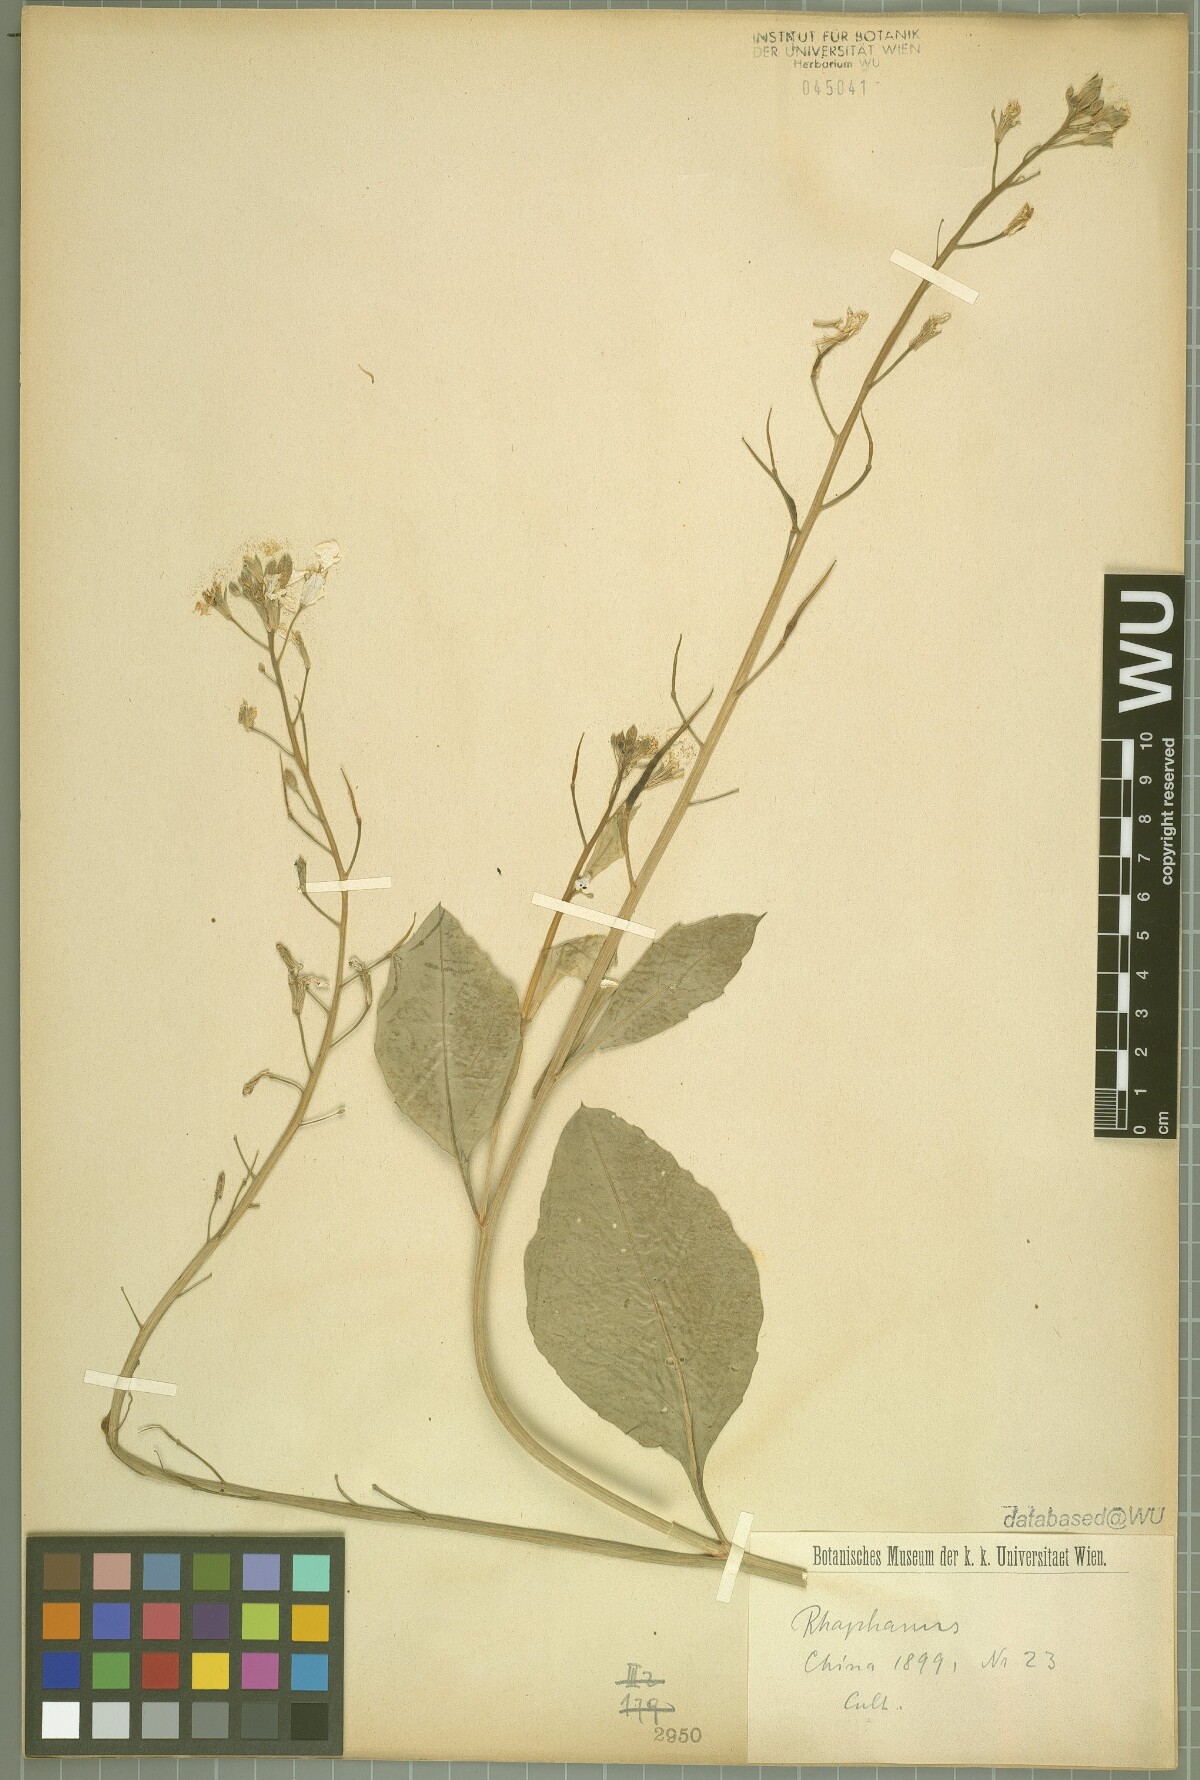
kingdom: Plantae
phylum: Tracheophyta
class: Magnoliopsida
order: Brassicales
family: Brassicaceae
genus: Raphanus
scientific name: Raphanus
